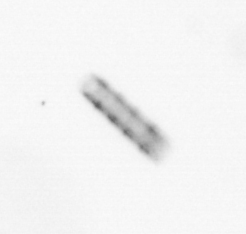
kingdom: Chromista
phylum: Ochrophyta
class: Bacillariophyceae
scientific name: Bacillariophyceae
